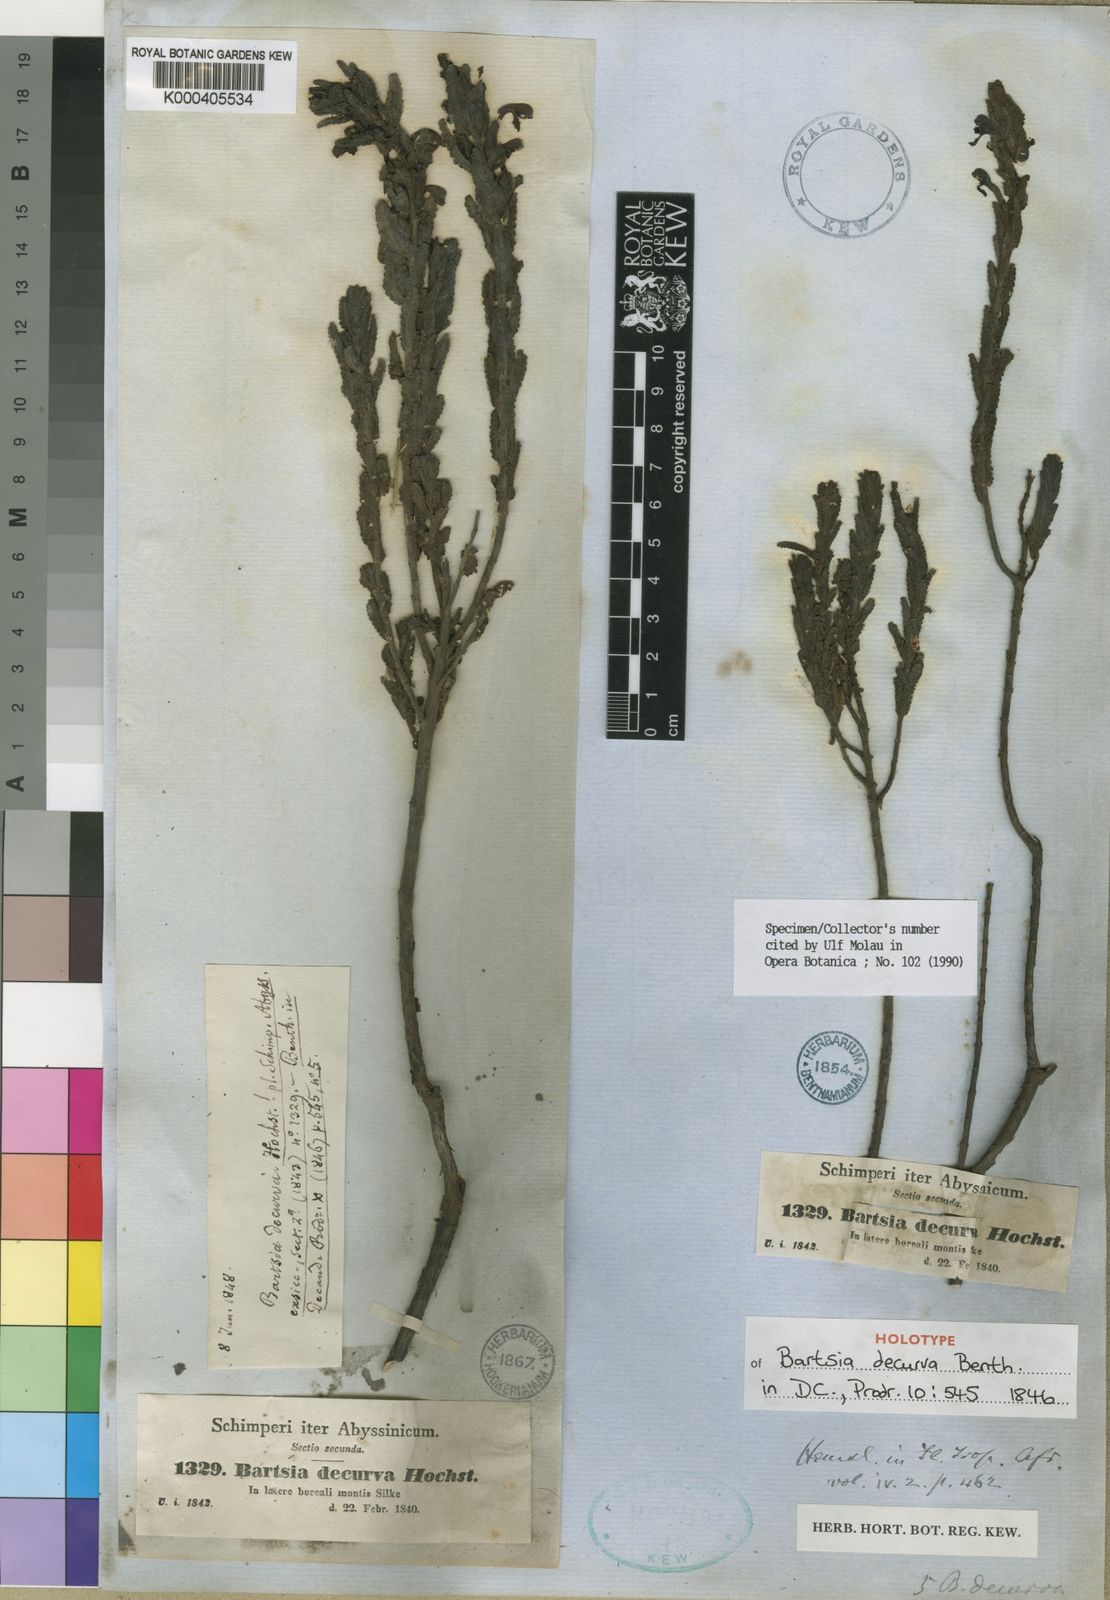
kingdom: Plantae
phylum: Tracheophyta
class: Magnoliopsida
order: Lamiales
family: Orobanchaceae
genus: Hedbergia
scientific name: Hedbergia decurva
